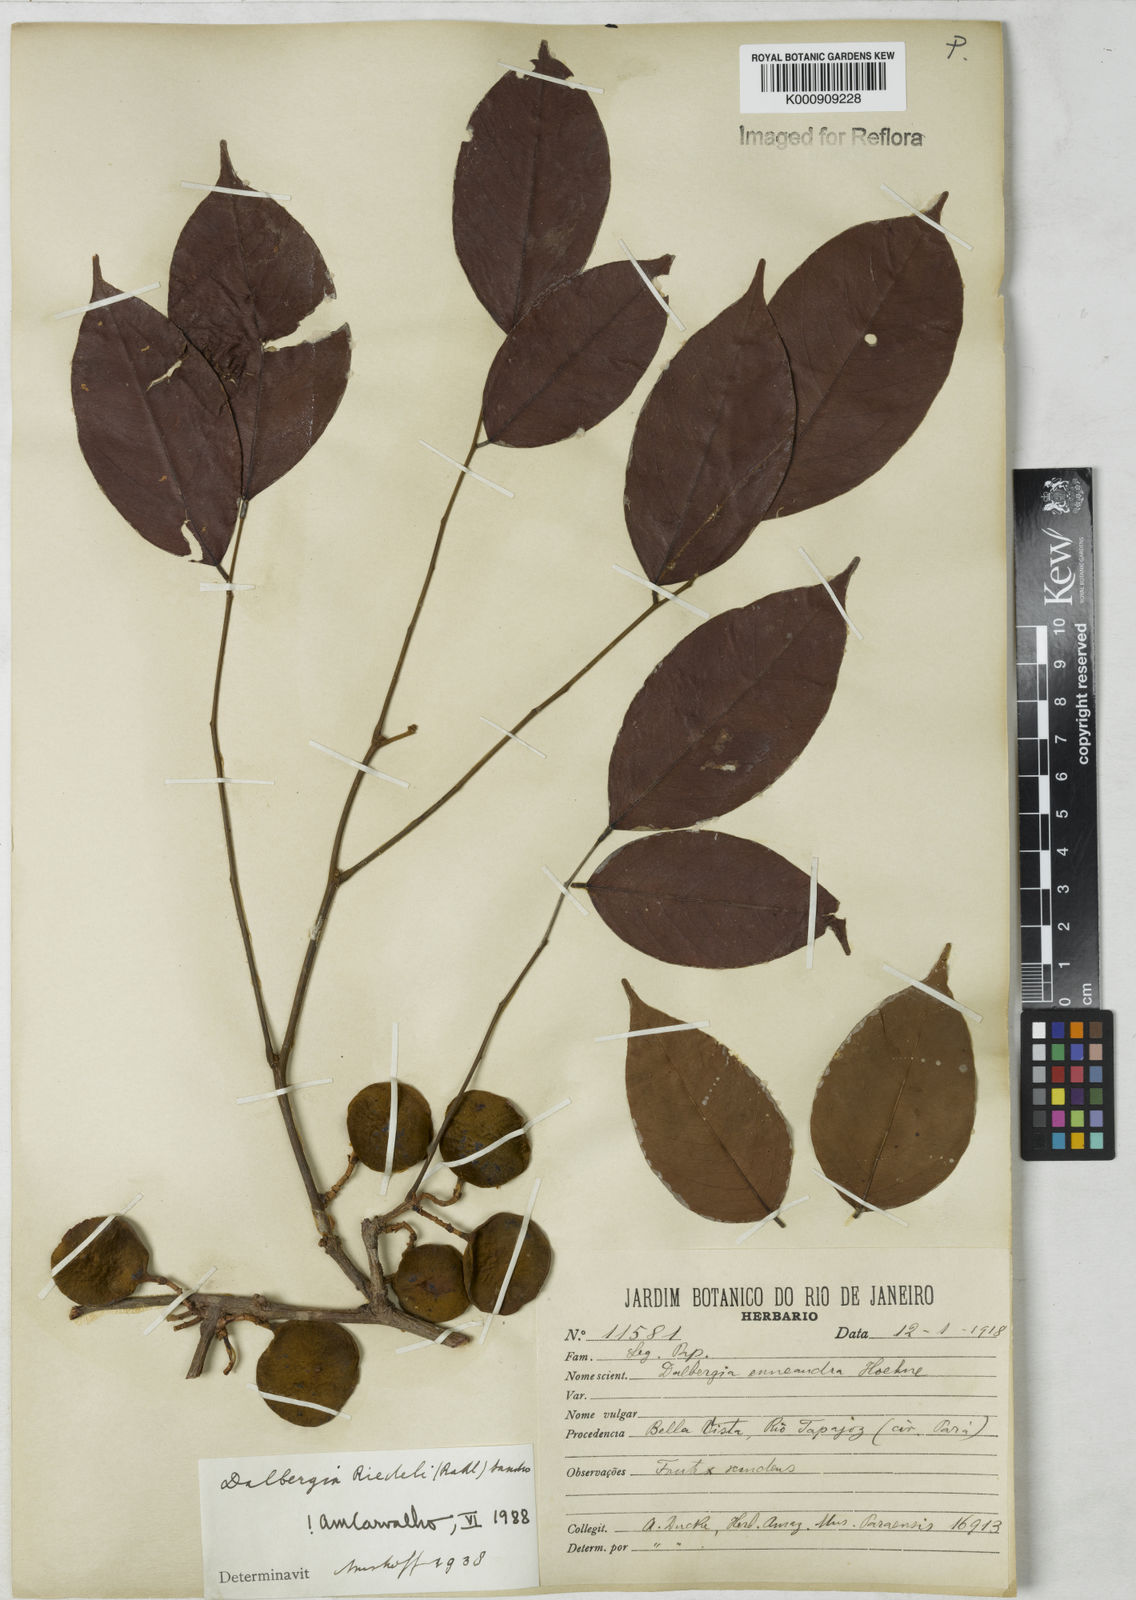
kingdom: Plantae
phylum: Tracheophyta
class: Magnoliopsida
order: Fabales
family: Fabaceae
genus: Dalbergia
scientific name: Dalbergia riedelii
